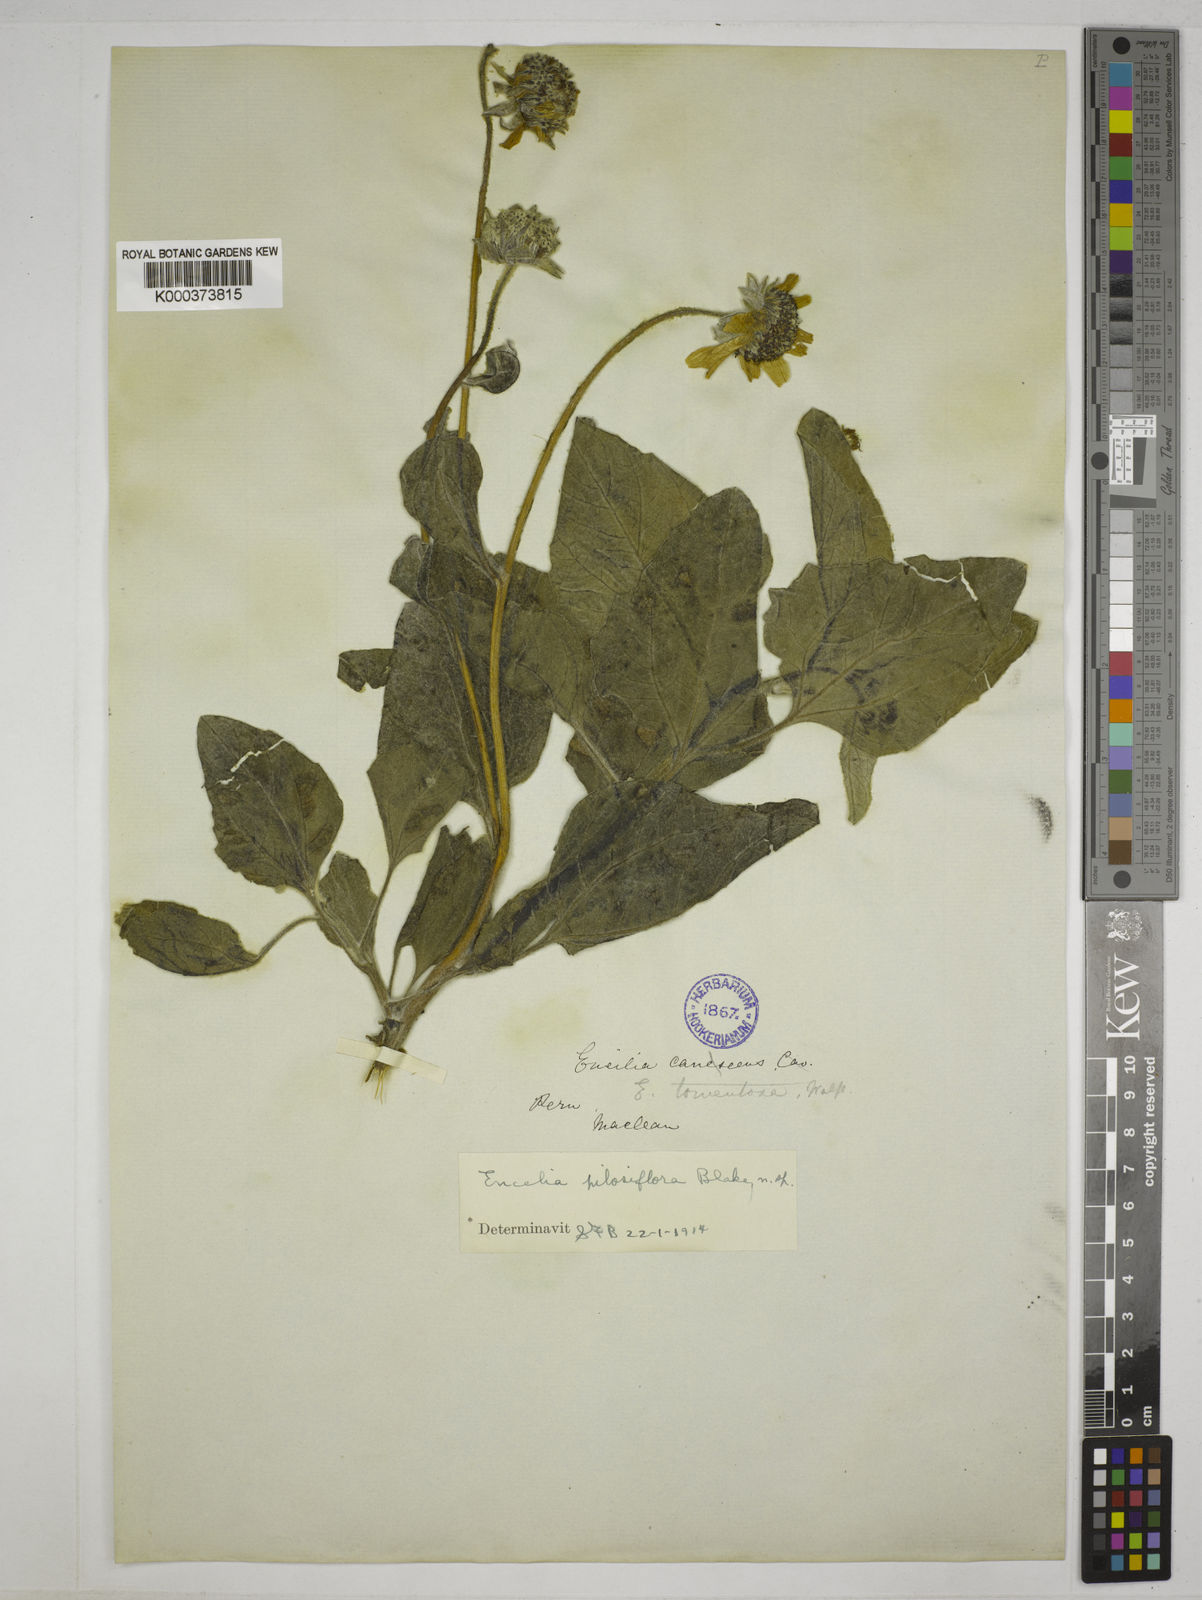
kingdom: Plantae
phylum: Tracheophyta
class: Magnoliopsida
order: Asterales
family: Asteraceae
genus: Encelia
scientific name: Encelia pilosiflora
